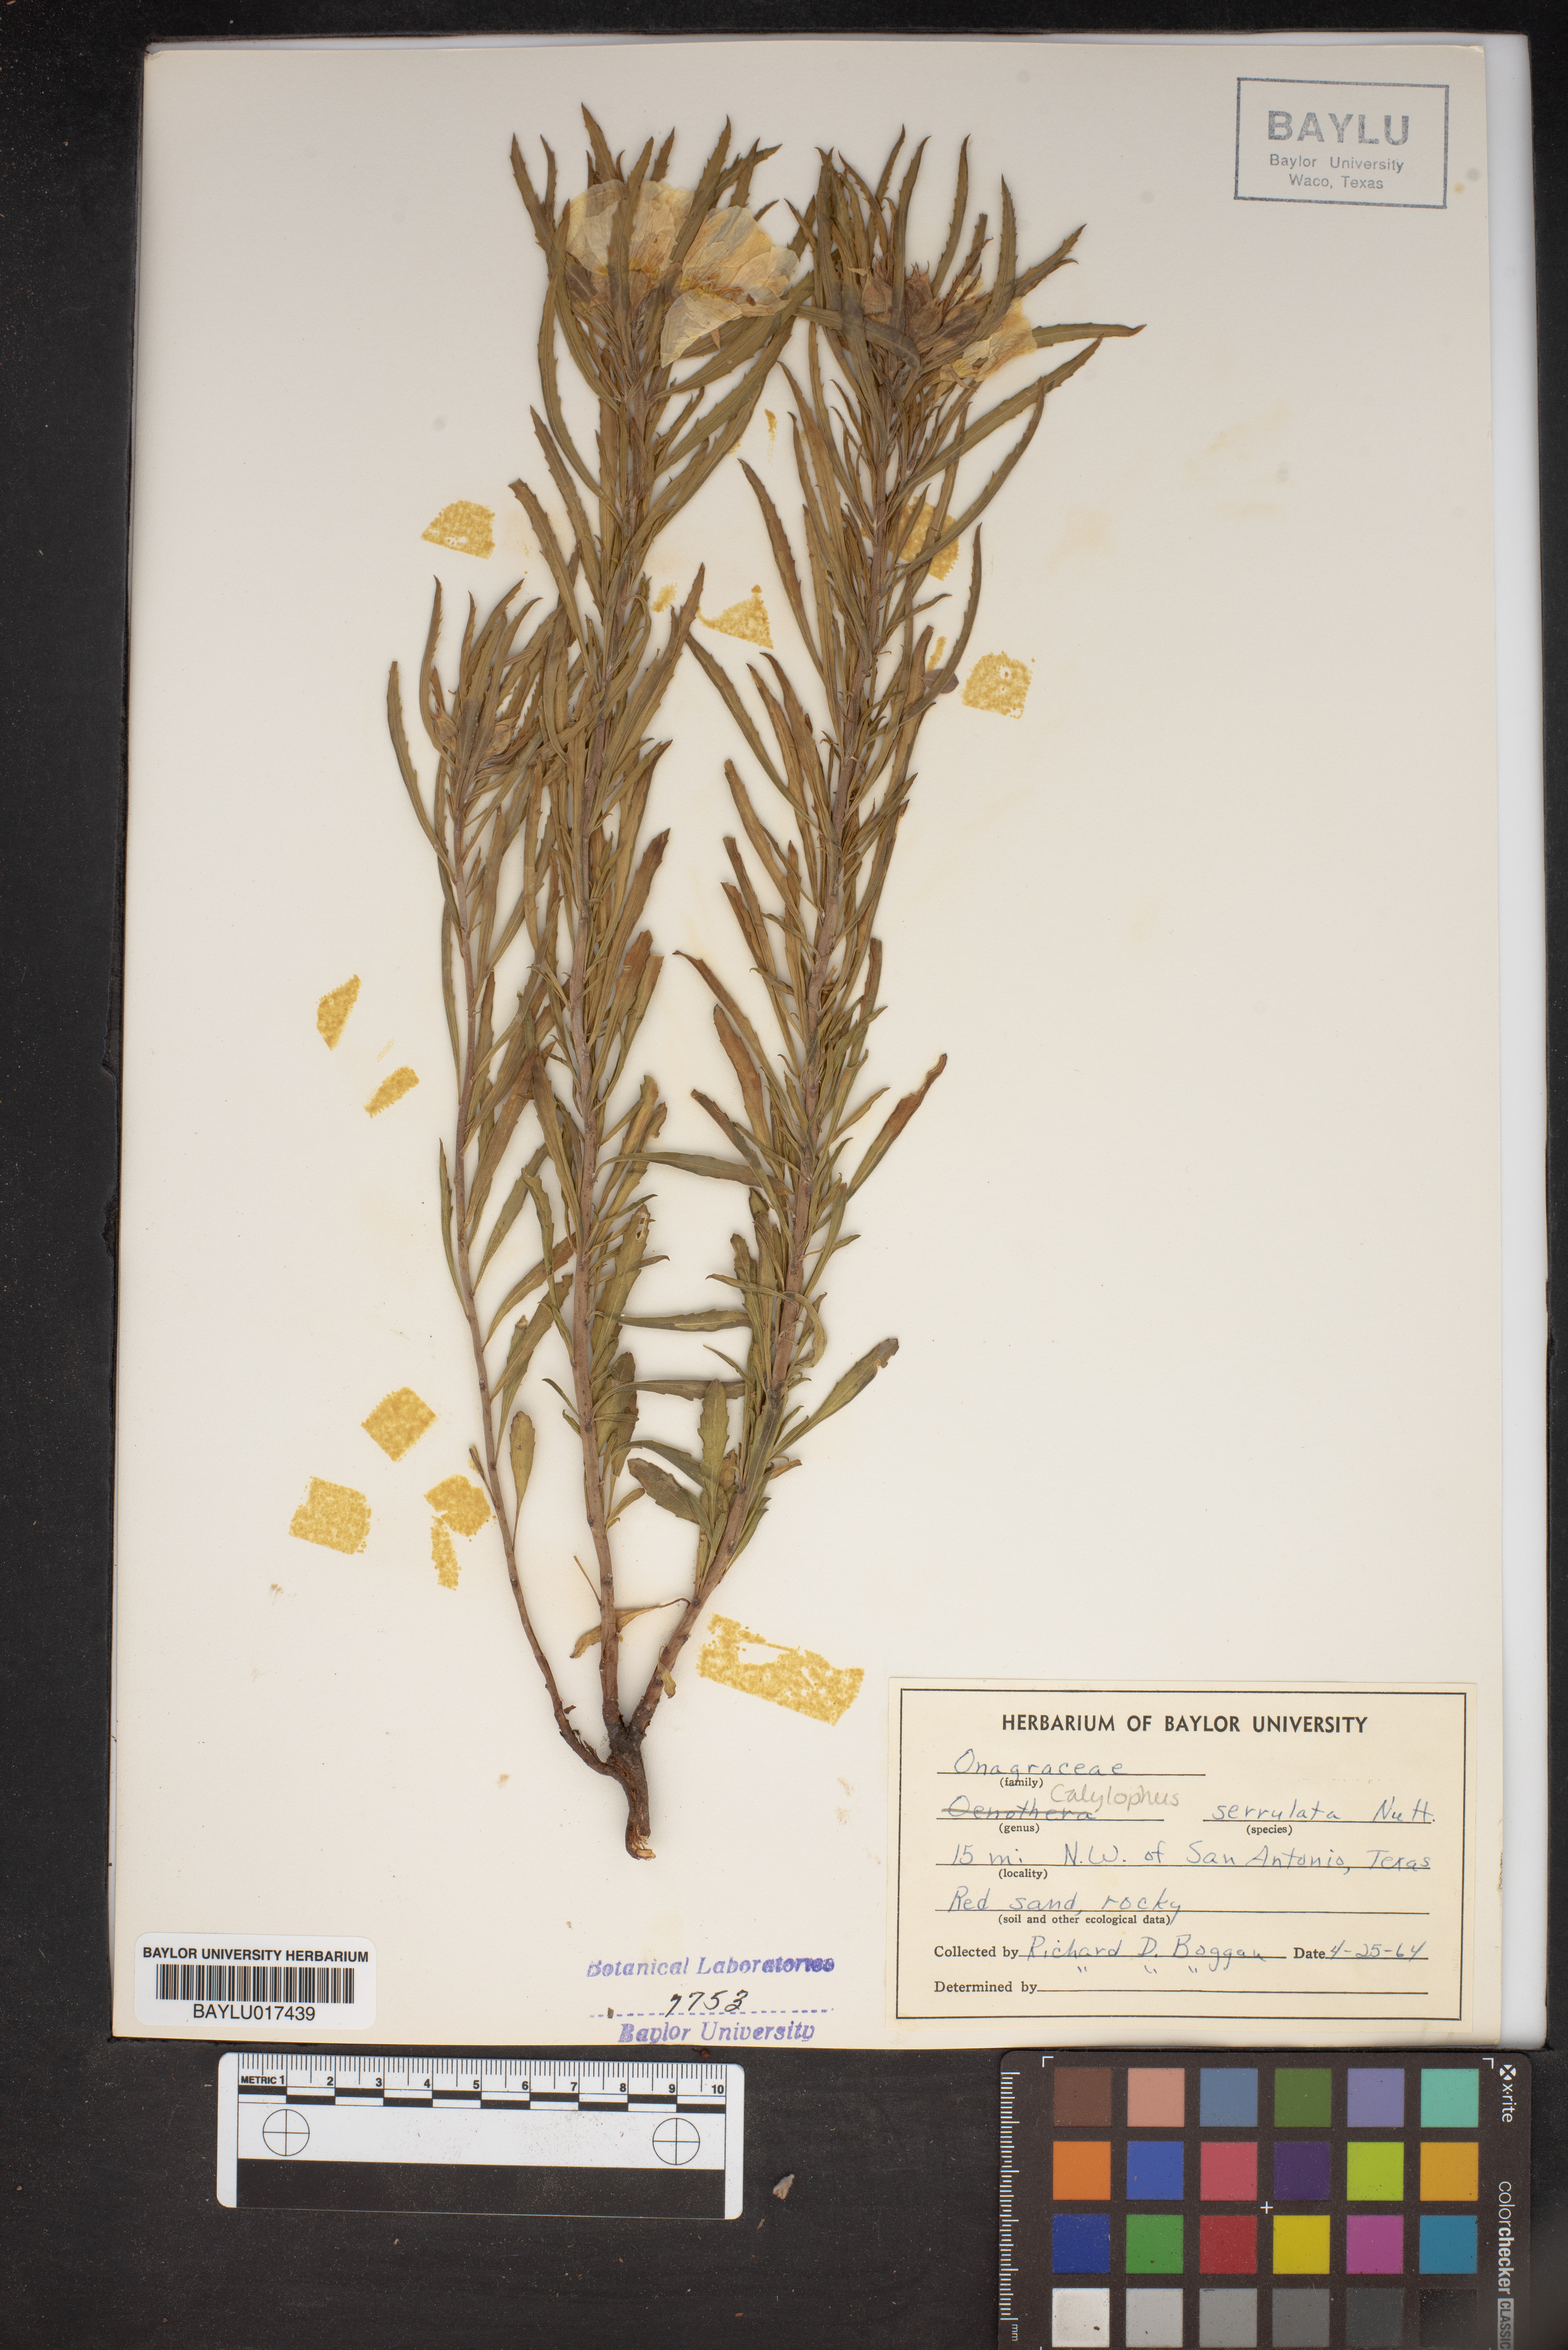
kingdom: Plantae
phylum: Tracheophyta
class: Magnoliopsida
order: Myrtales
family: Onagraceae
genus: Oenothera
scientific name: Oenothera serrulata
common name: Half-shrub calylophus
